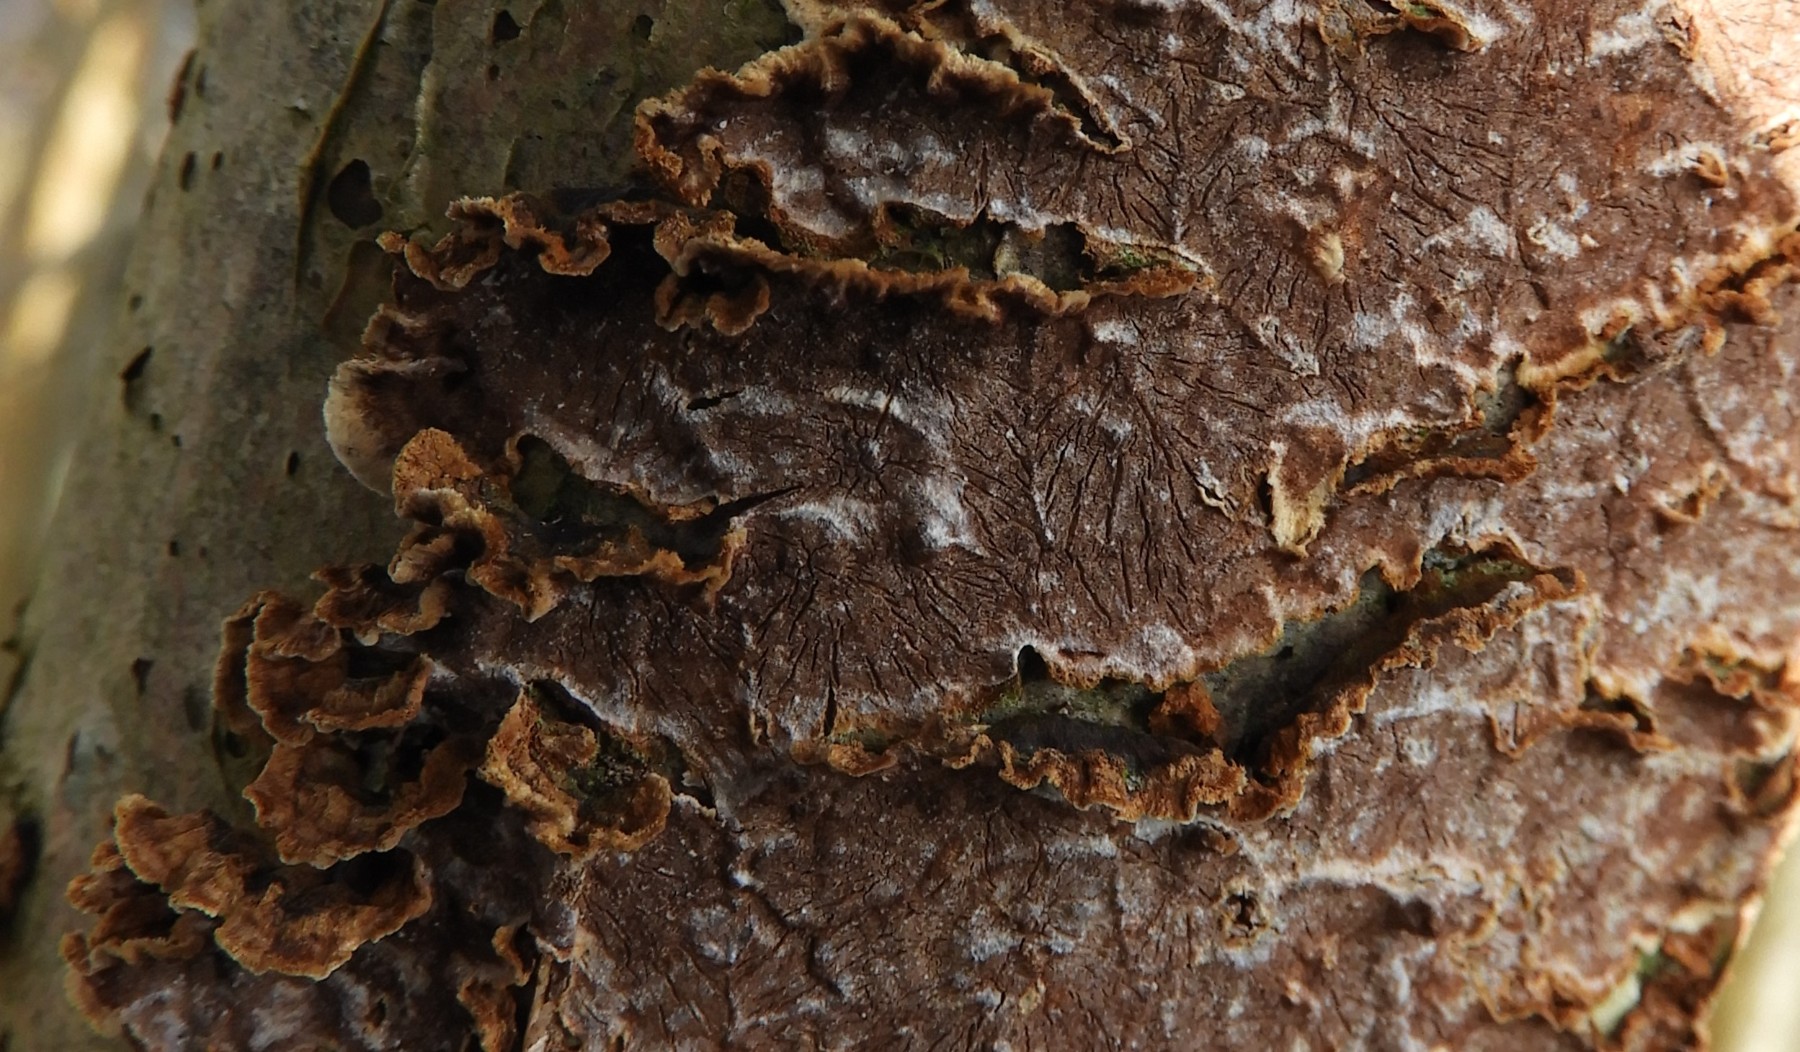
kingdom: Fungi
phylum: Basidiomycota
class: Agaricomycetes
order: Hymenochaetales
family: Hymenochaetaceae
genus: Hydnoporia
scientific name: Hydnoporia tabacina
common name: tobaksbrun ruslædersvamp
